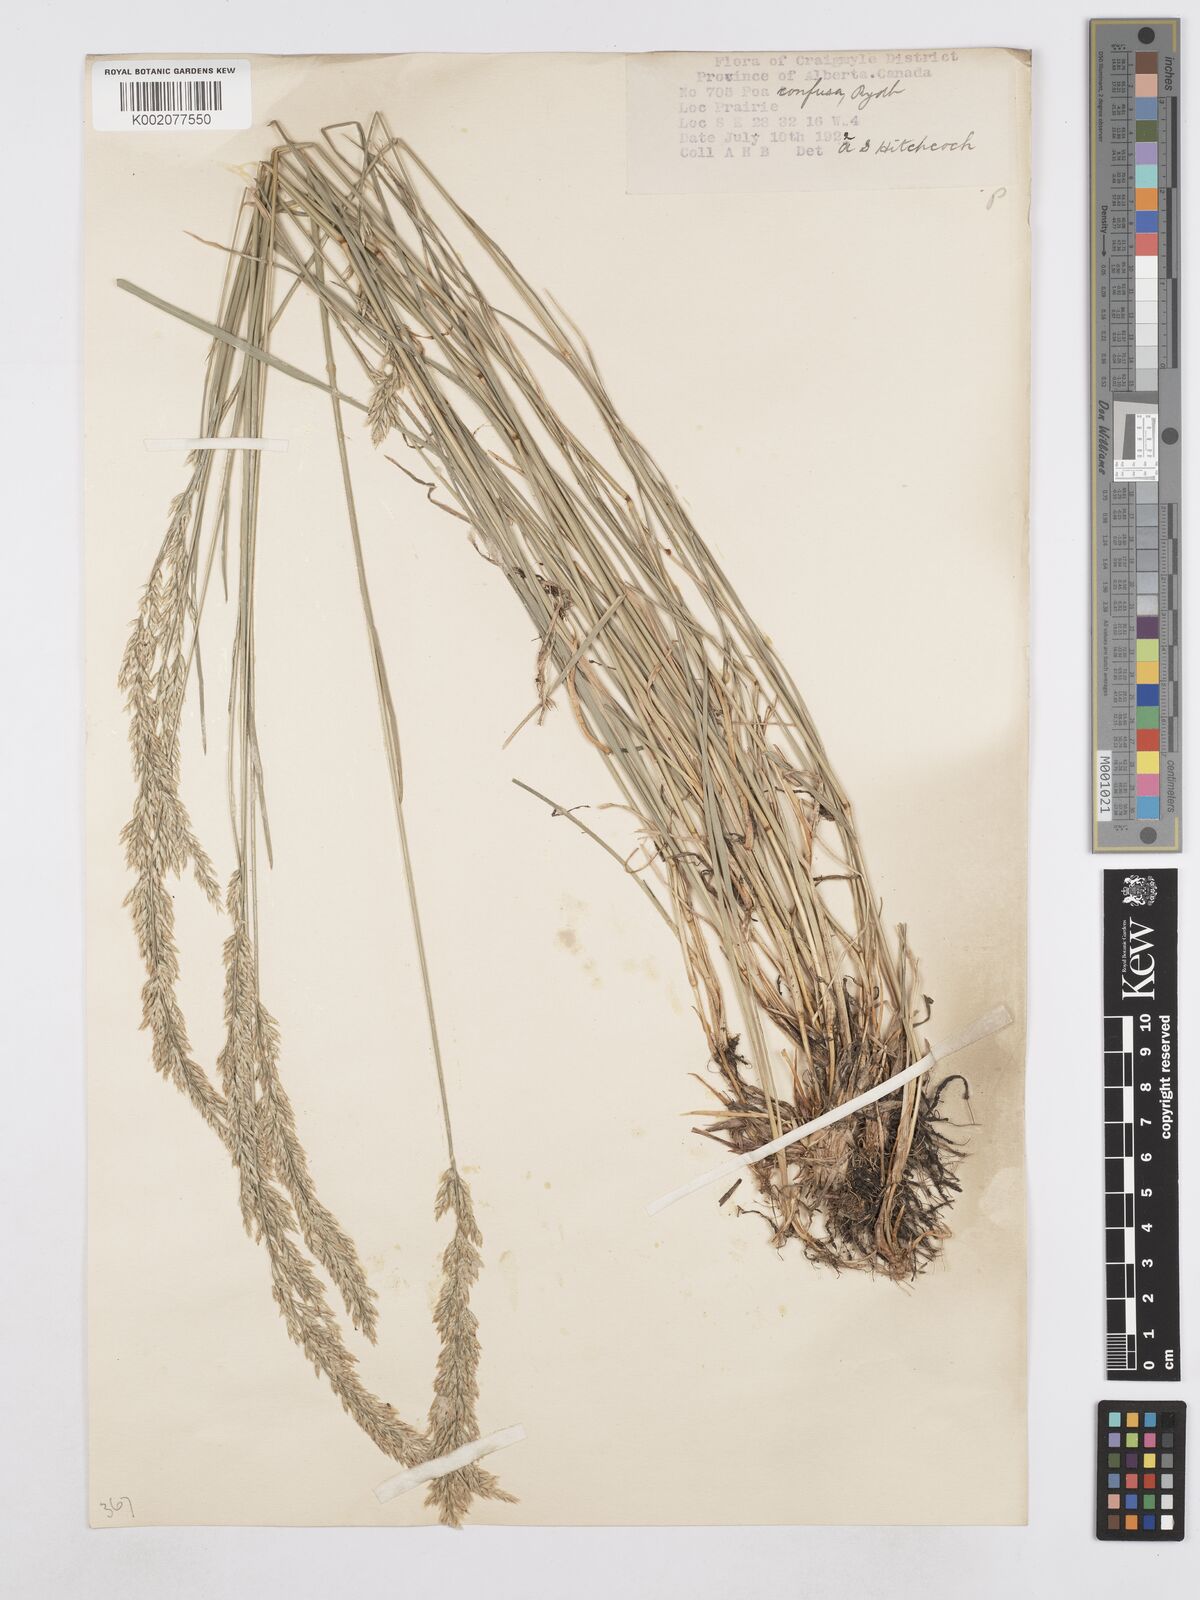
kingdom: Plantae
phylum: Tracheophyta
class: Liliopsida
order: Poales
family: Poaceae
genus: Poa
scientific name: Poa secunda
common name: Sandberg bluegrass
